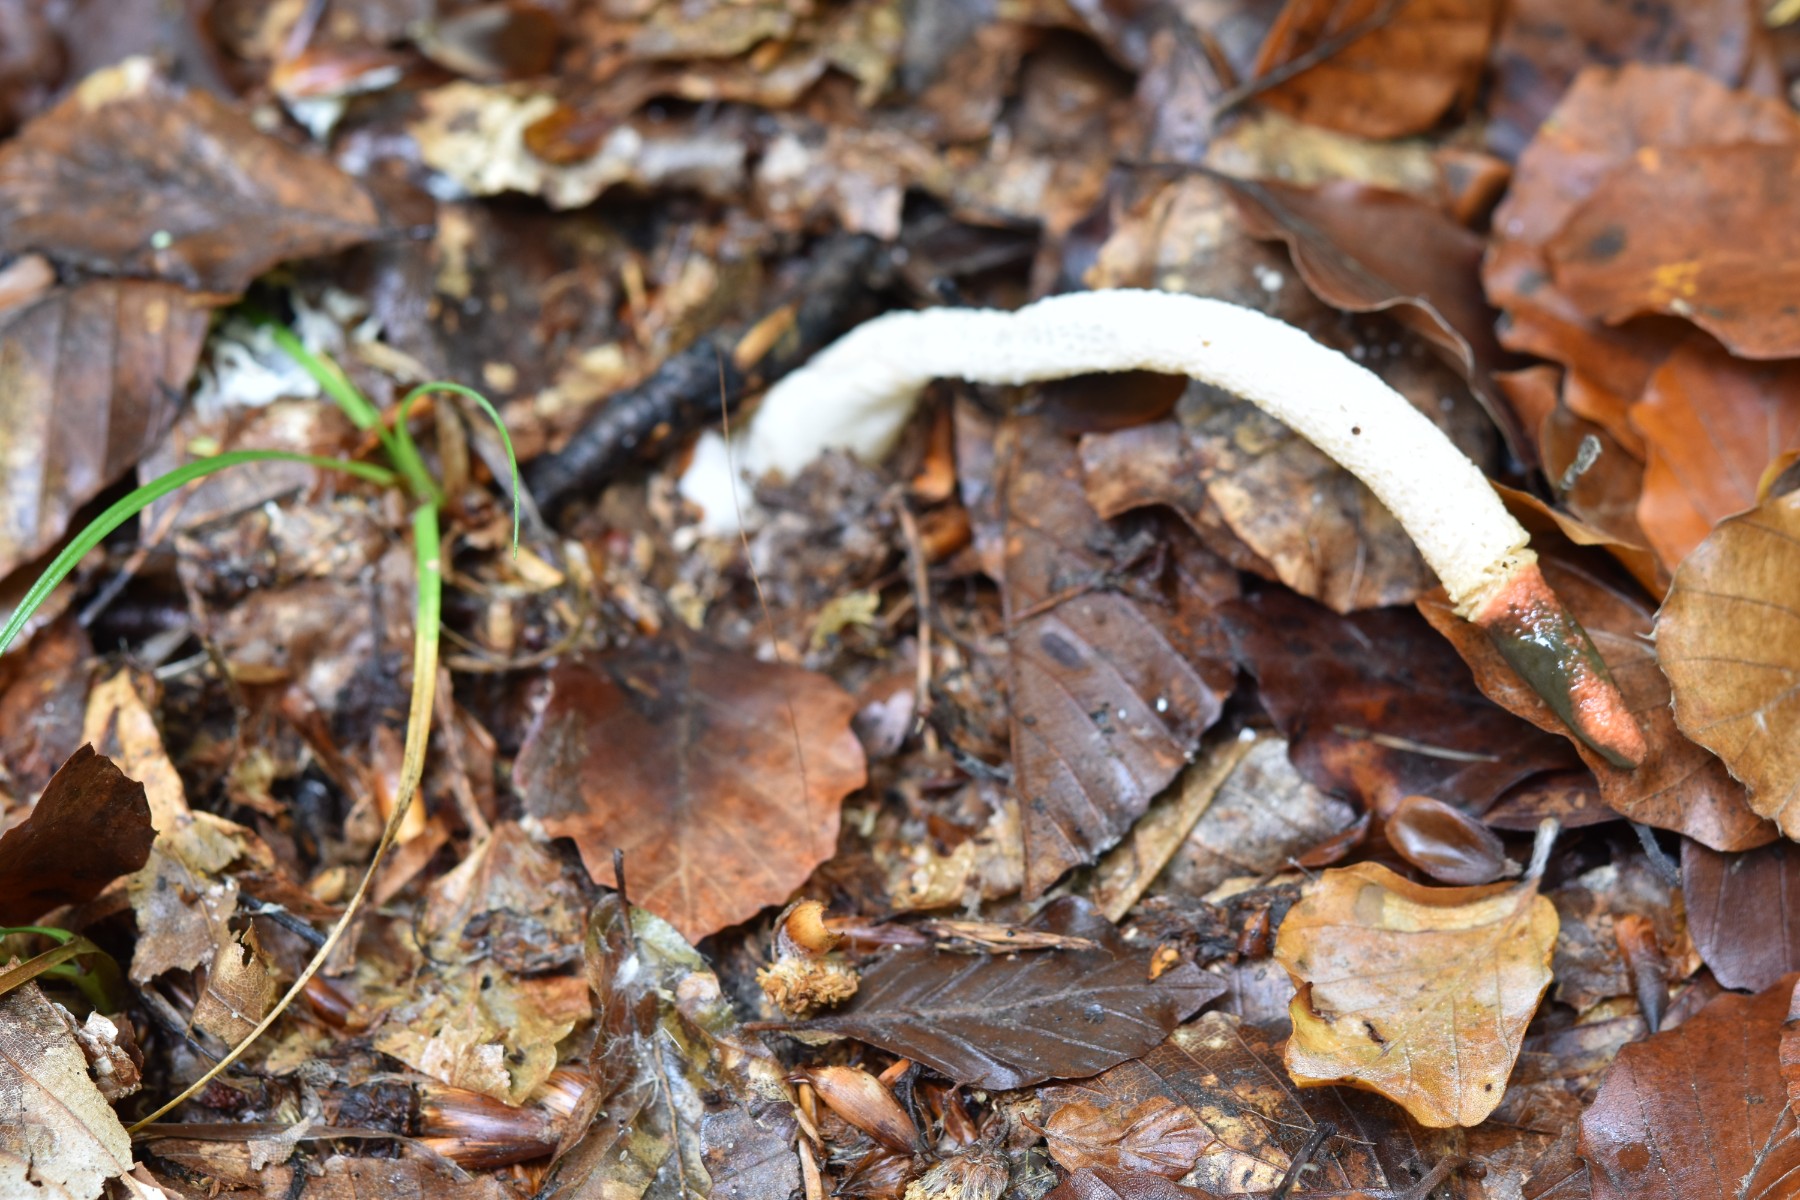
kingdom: Fungi
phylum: Basidiomycota
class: Agaricomycetes
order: Phallales
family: Phallaceae
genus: Mutinus
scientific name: Mutinus caninus
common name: hunde-stinksvamp
